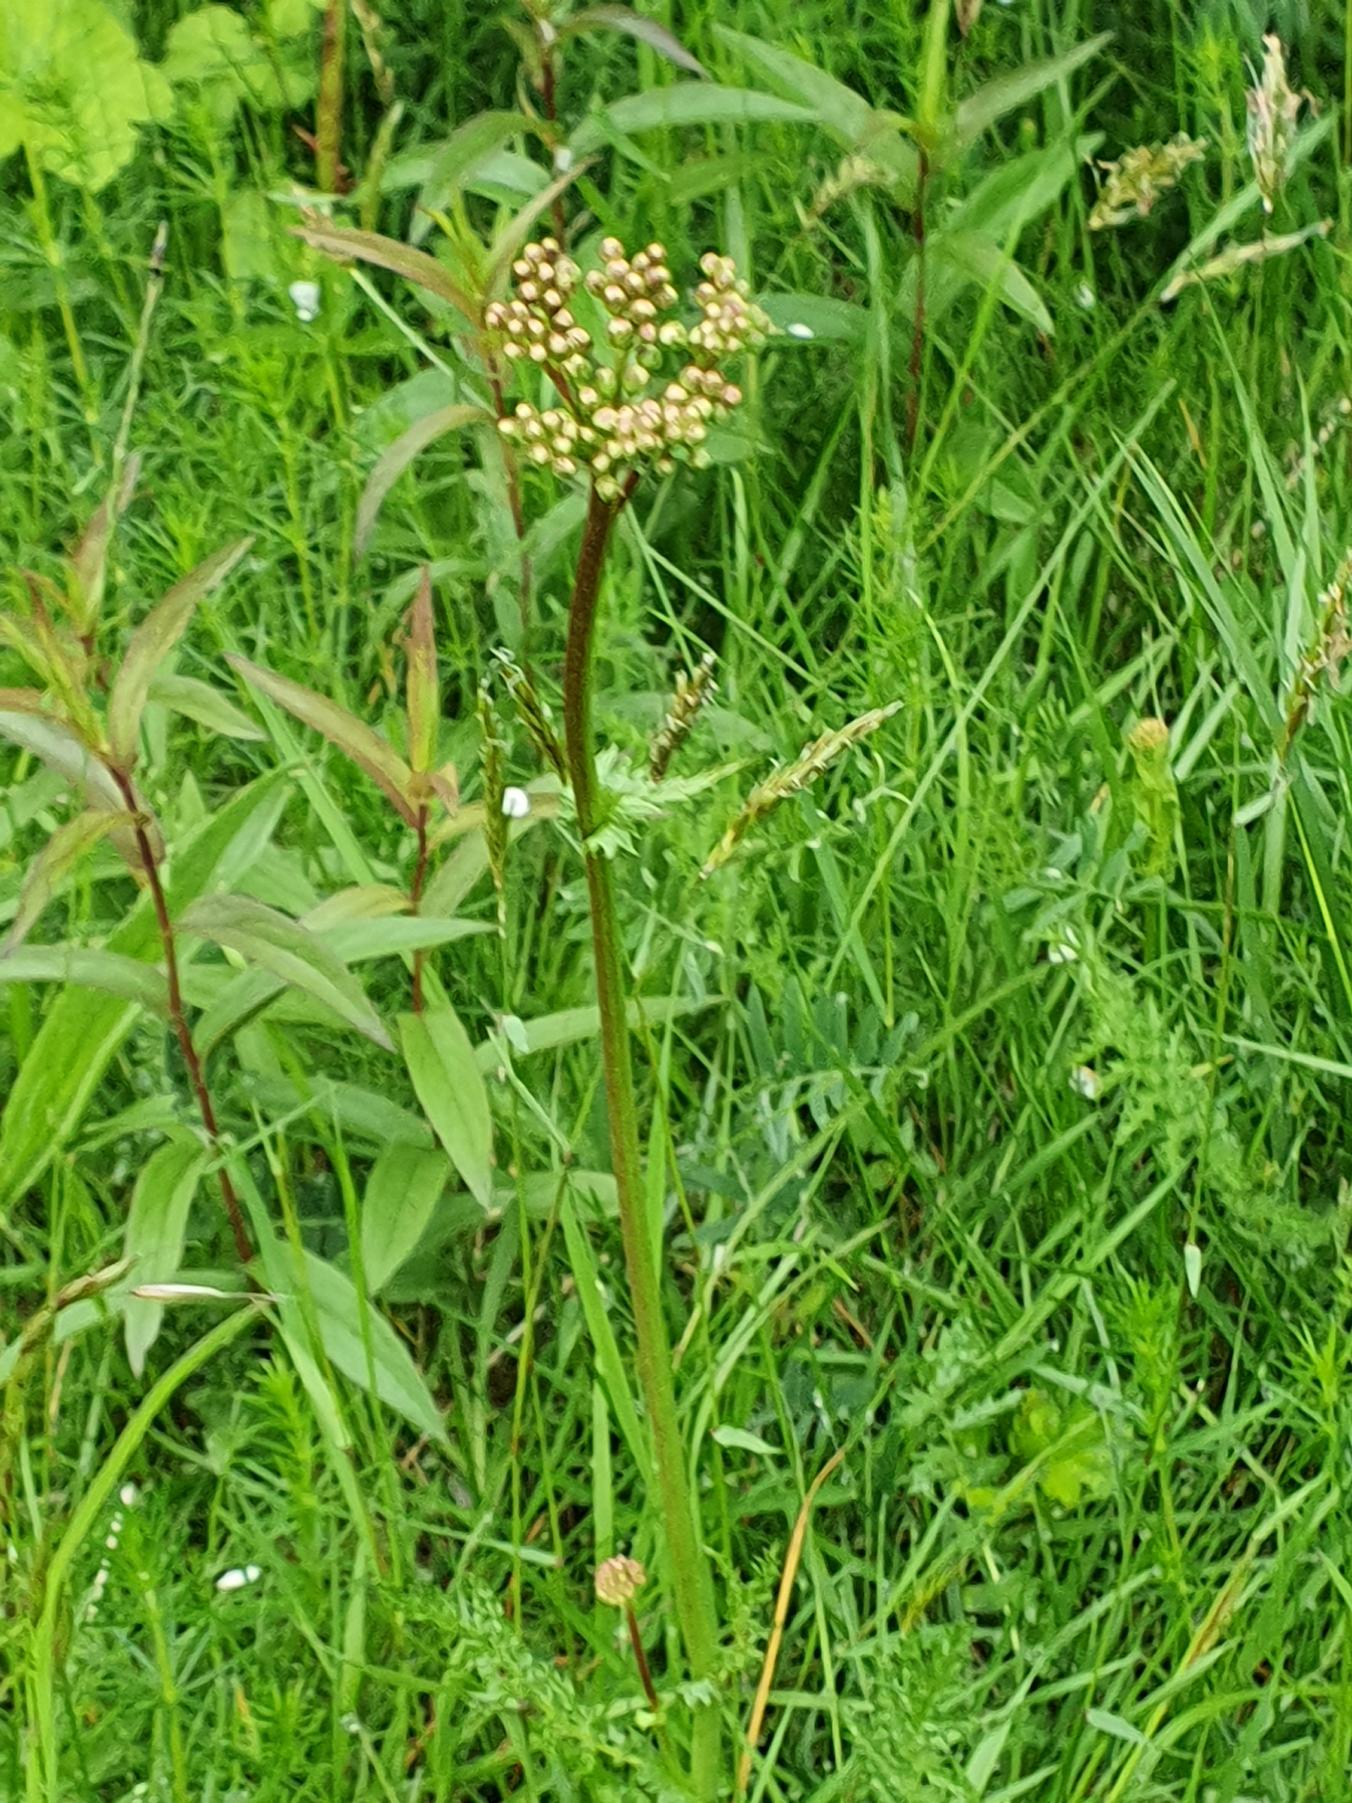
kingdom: Plantae
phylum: Tracheophyta
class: Magnoliopsida
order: Rosales
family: Rosaceae
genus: Filipendula
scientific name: Filipendula vulgaris
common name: Knoldet mjødurt
